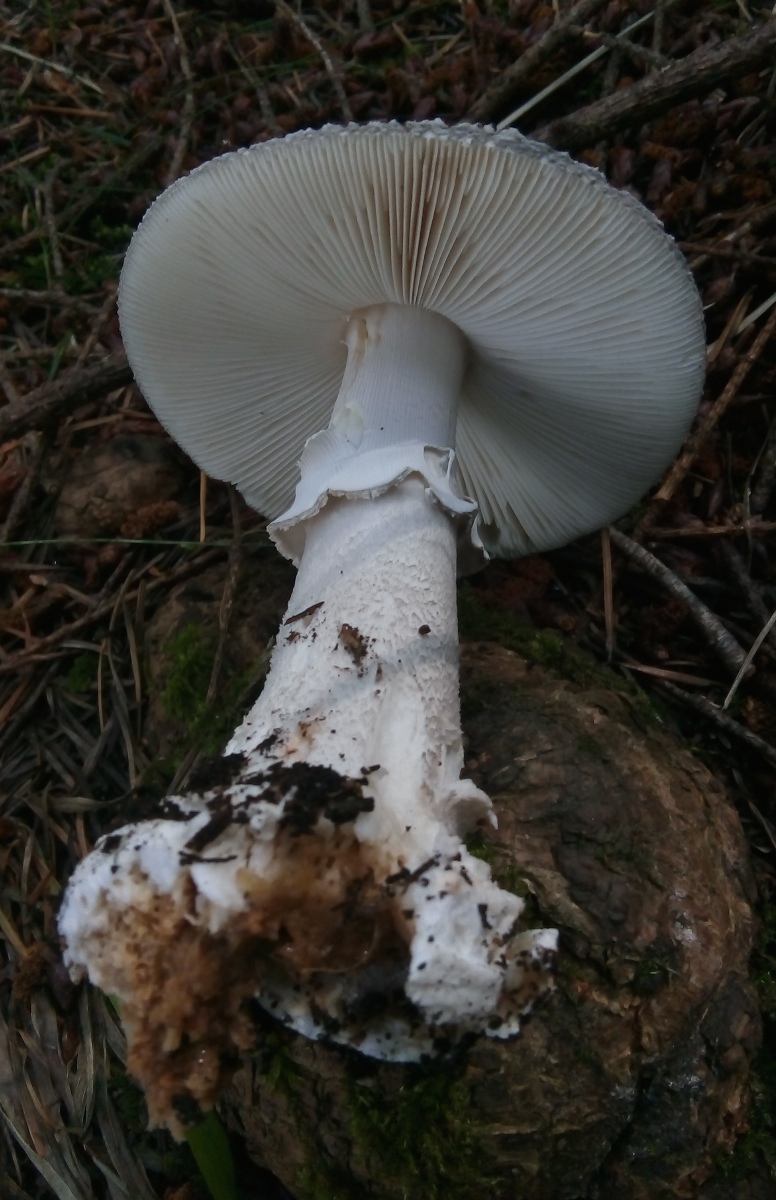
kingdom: Fungi
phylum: Basidiomycota
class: Agaricomycetes
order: Agaricales
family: Amanitaceae
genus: Amanita
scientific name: Amanita
